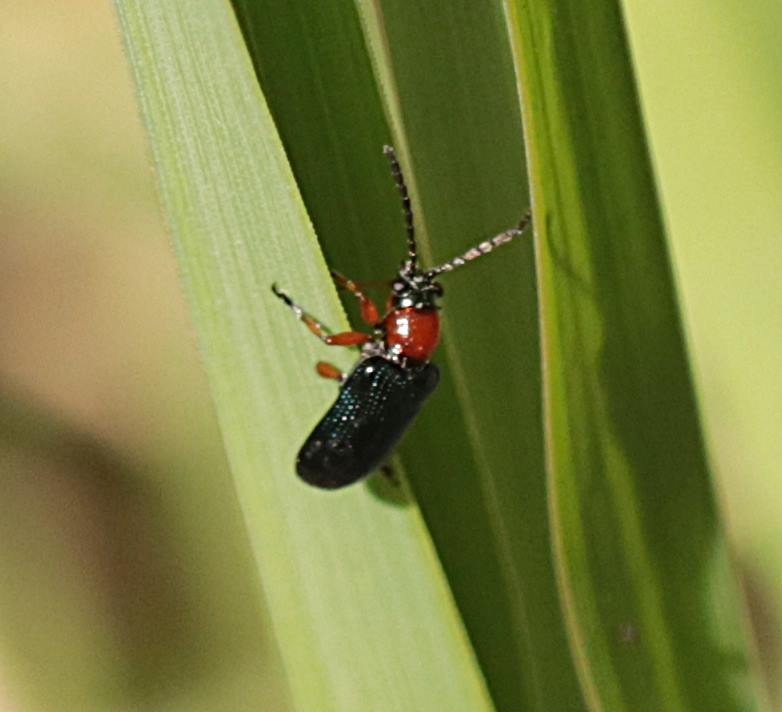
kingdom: Animalia
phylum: Arthropoda
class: Insecta
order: Coleoptera
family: Chrysomelidae
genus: Oulema
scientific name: Oulema
